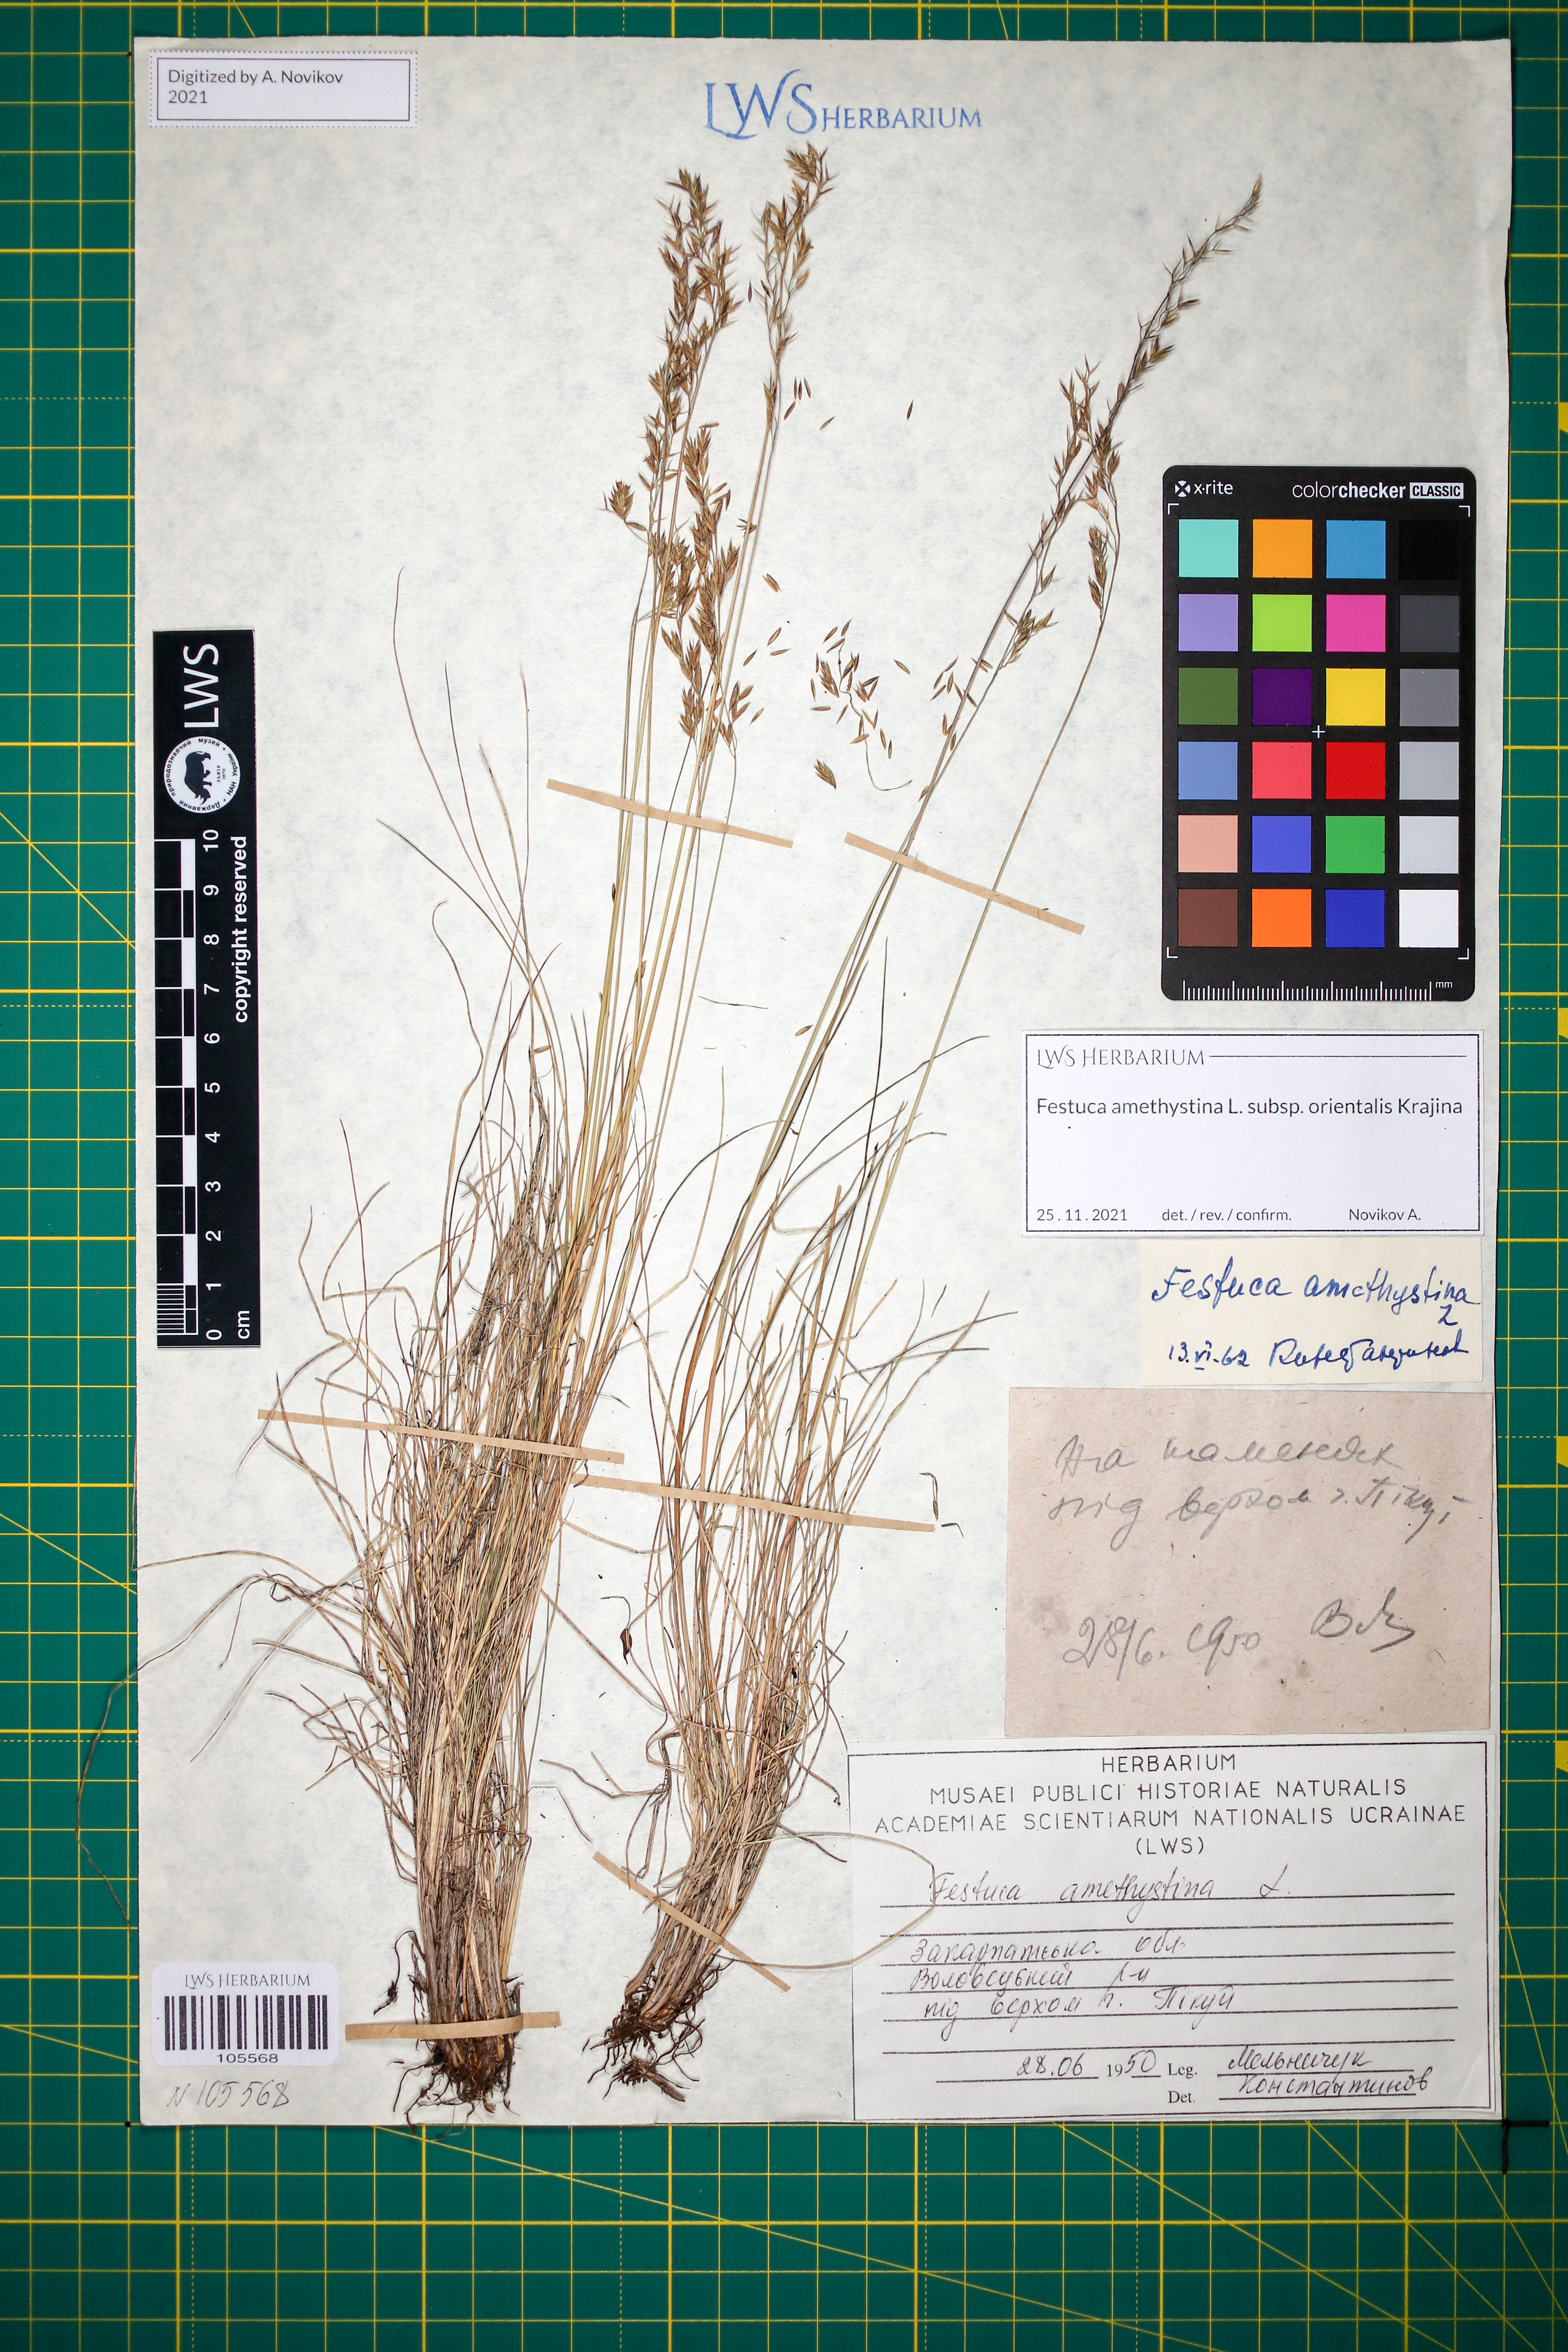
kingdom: Plantae
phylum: Tracheophyta
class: Liliopsida
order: Poales
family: Poaceae
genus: Festuca
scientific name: Festuca amethystina
